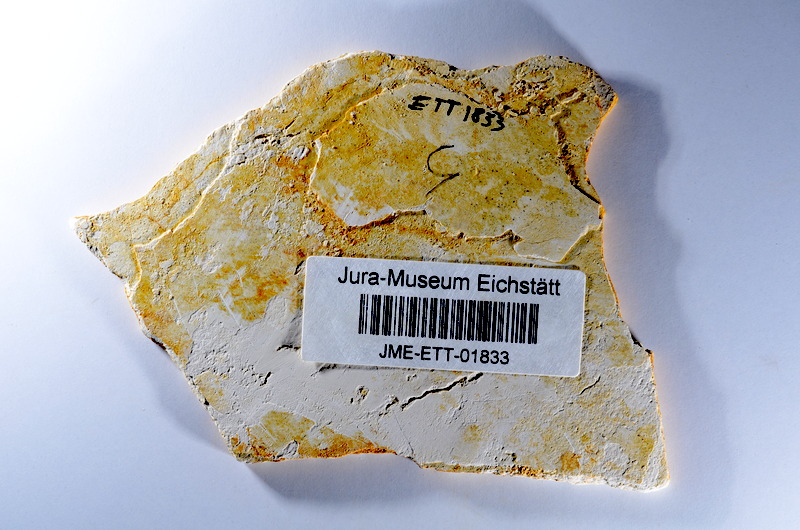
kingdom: Animalia
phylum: Chordata
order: Salmoniformes
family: Orthogonikleithridae
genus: Orthogonikleithrus
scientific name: Orthogonikleithrus hoelli
